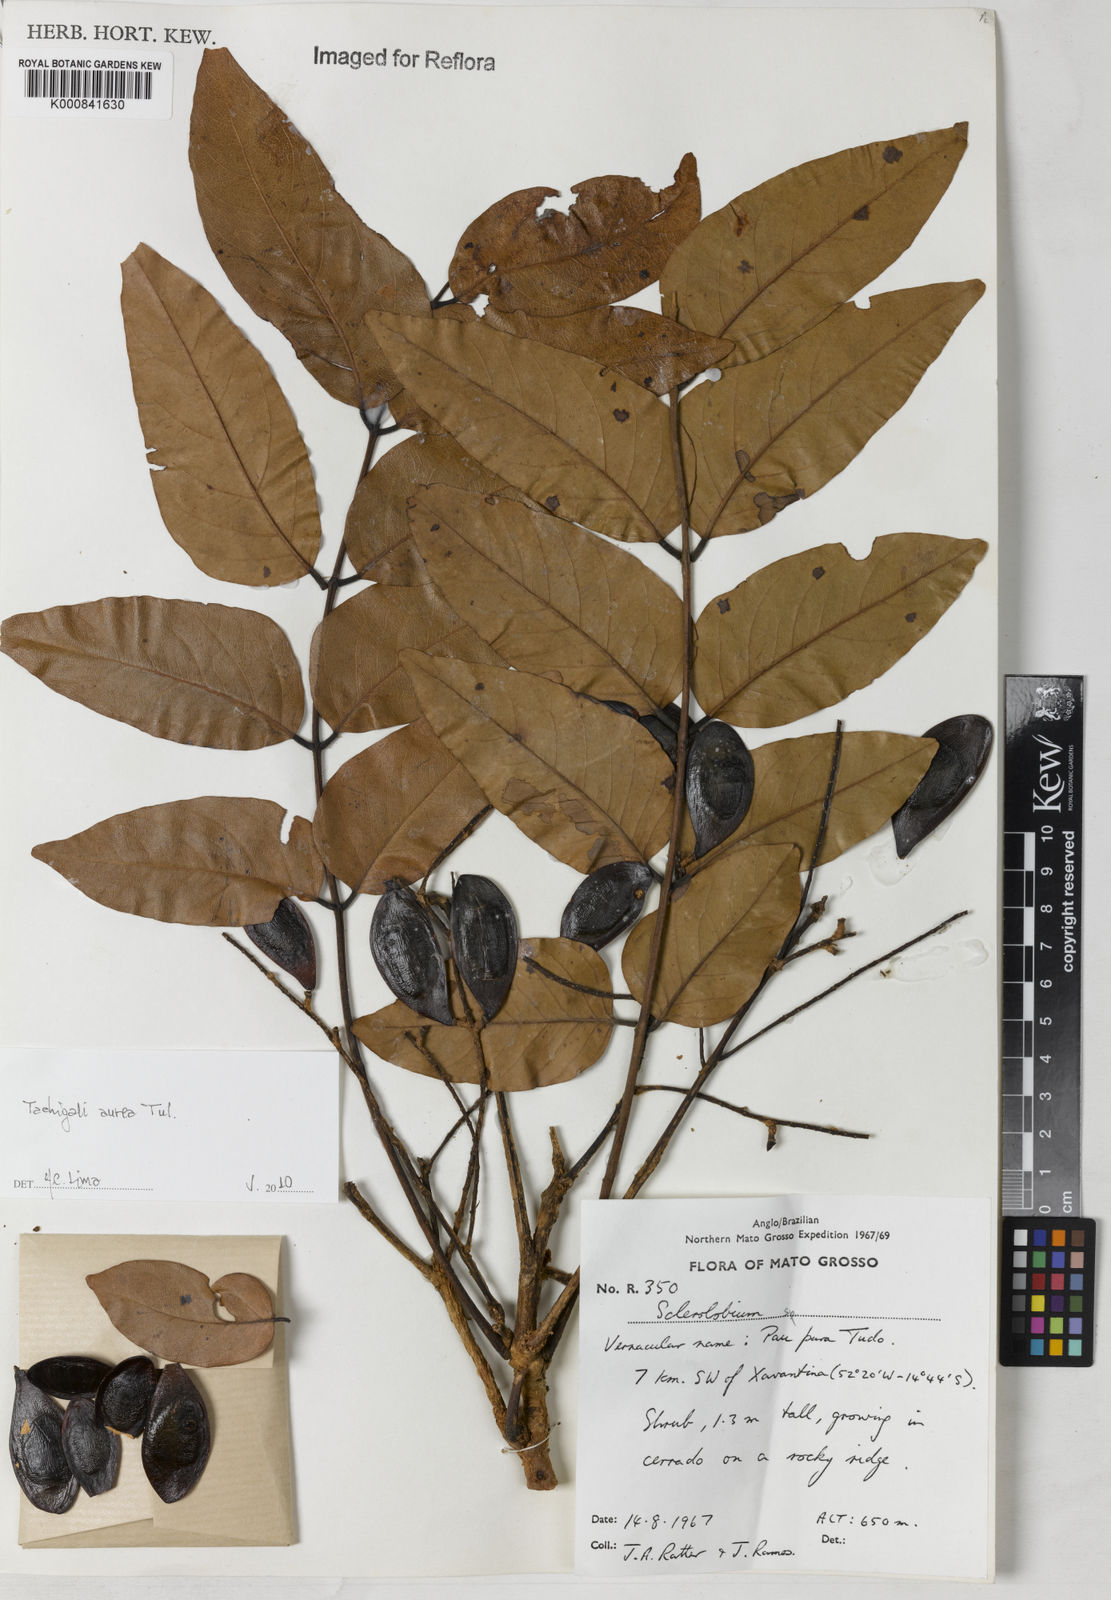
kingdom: Plantae
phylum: Tracheophyta
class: Magnoliopsida
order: Fabales
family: Fabaceae
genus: Tachigali
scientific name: Tachigali aurea
